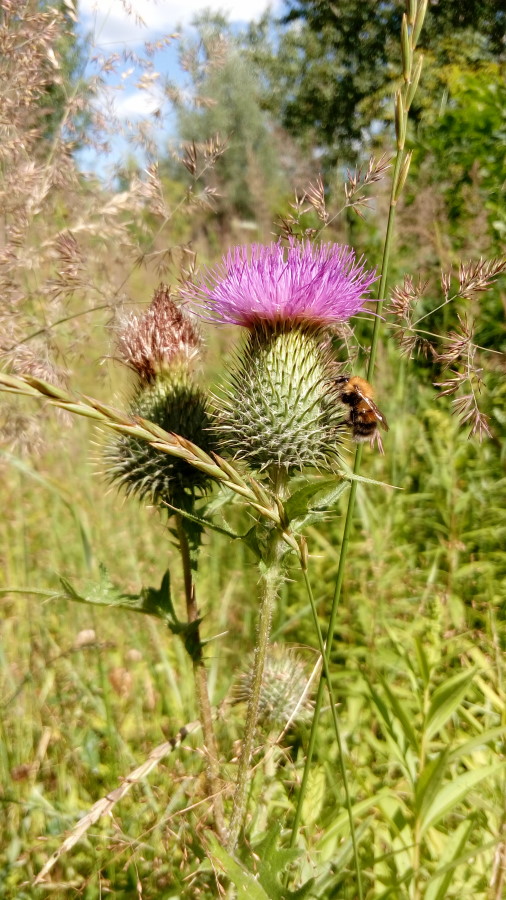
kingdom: Plantae
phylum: Tracheophyta
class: Magnoliopsida
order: Asterales
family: Asteraceae
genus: Cirsium
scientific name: Cirsium vulgare
